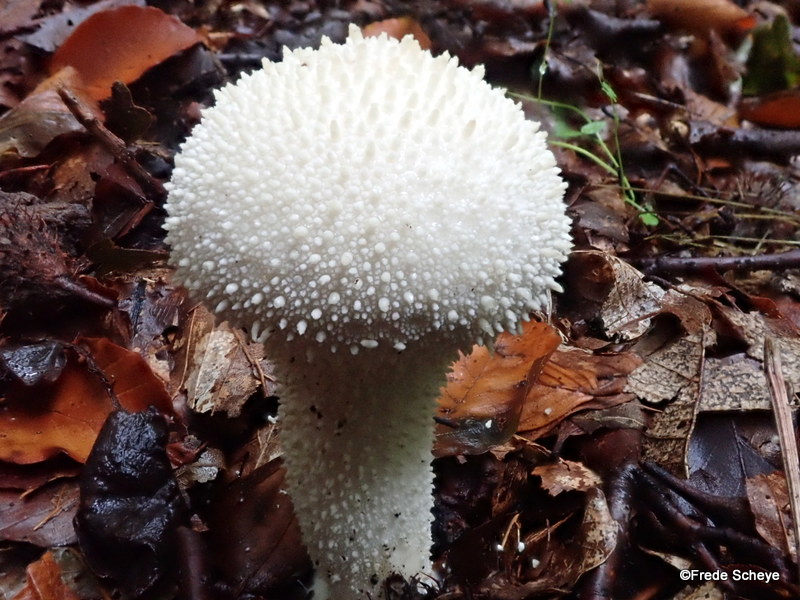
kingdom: Fungi
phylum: Basidiomycota
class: Agaricomycetes
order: Agaricales
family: Lycoperdaceae
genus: Lycoperdon
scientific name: Lycoperdon perlatum
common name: krystal-støvbold
